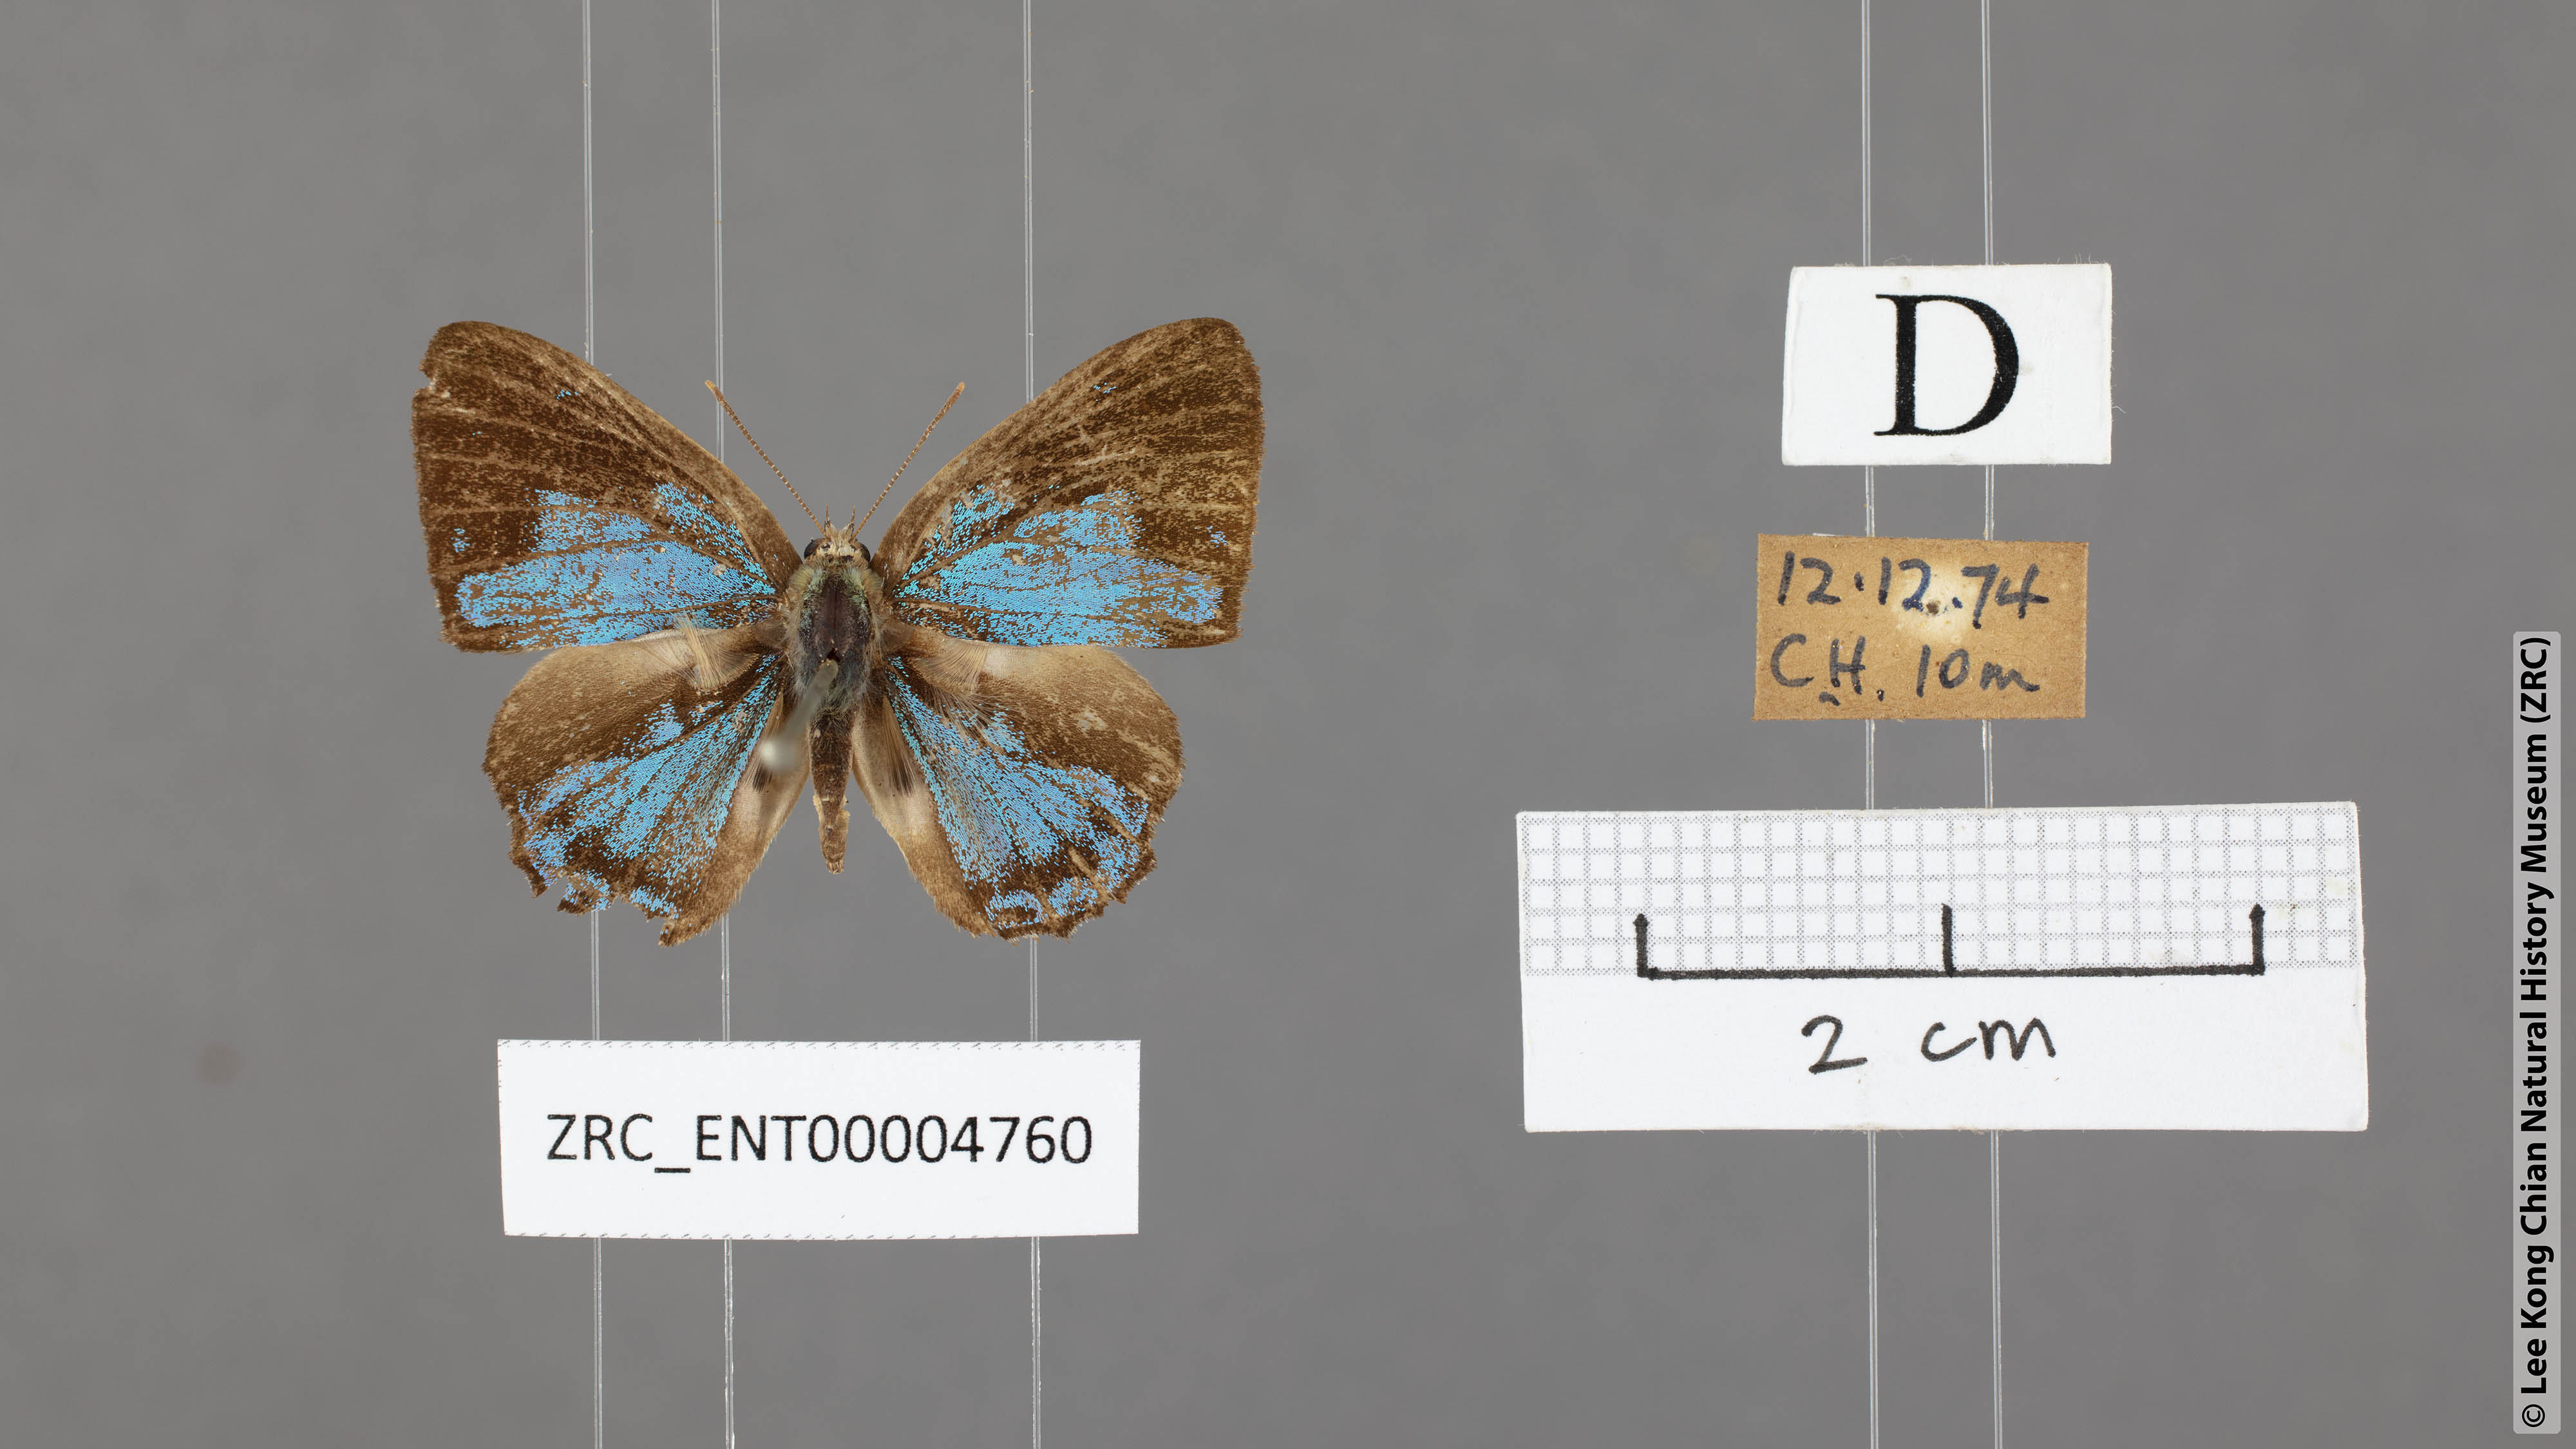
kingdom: Animalia
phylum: Arthropoda
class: Insecta
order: Lepidoptera
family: Lycaenidae
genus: Poritia
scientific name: Poritia pleurata
